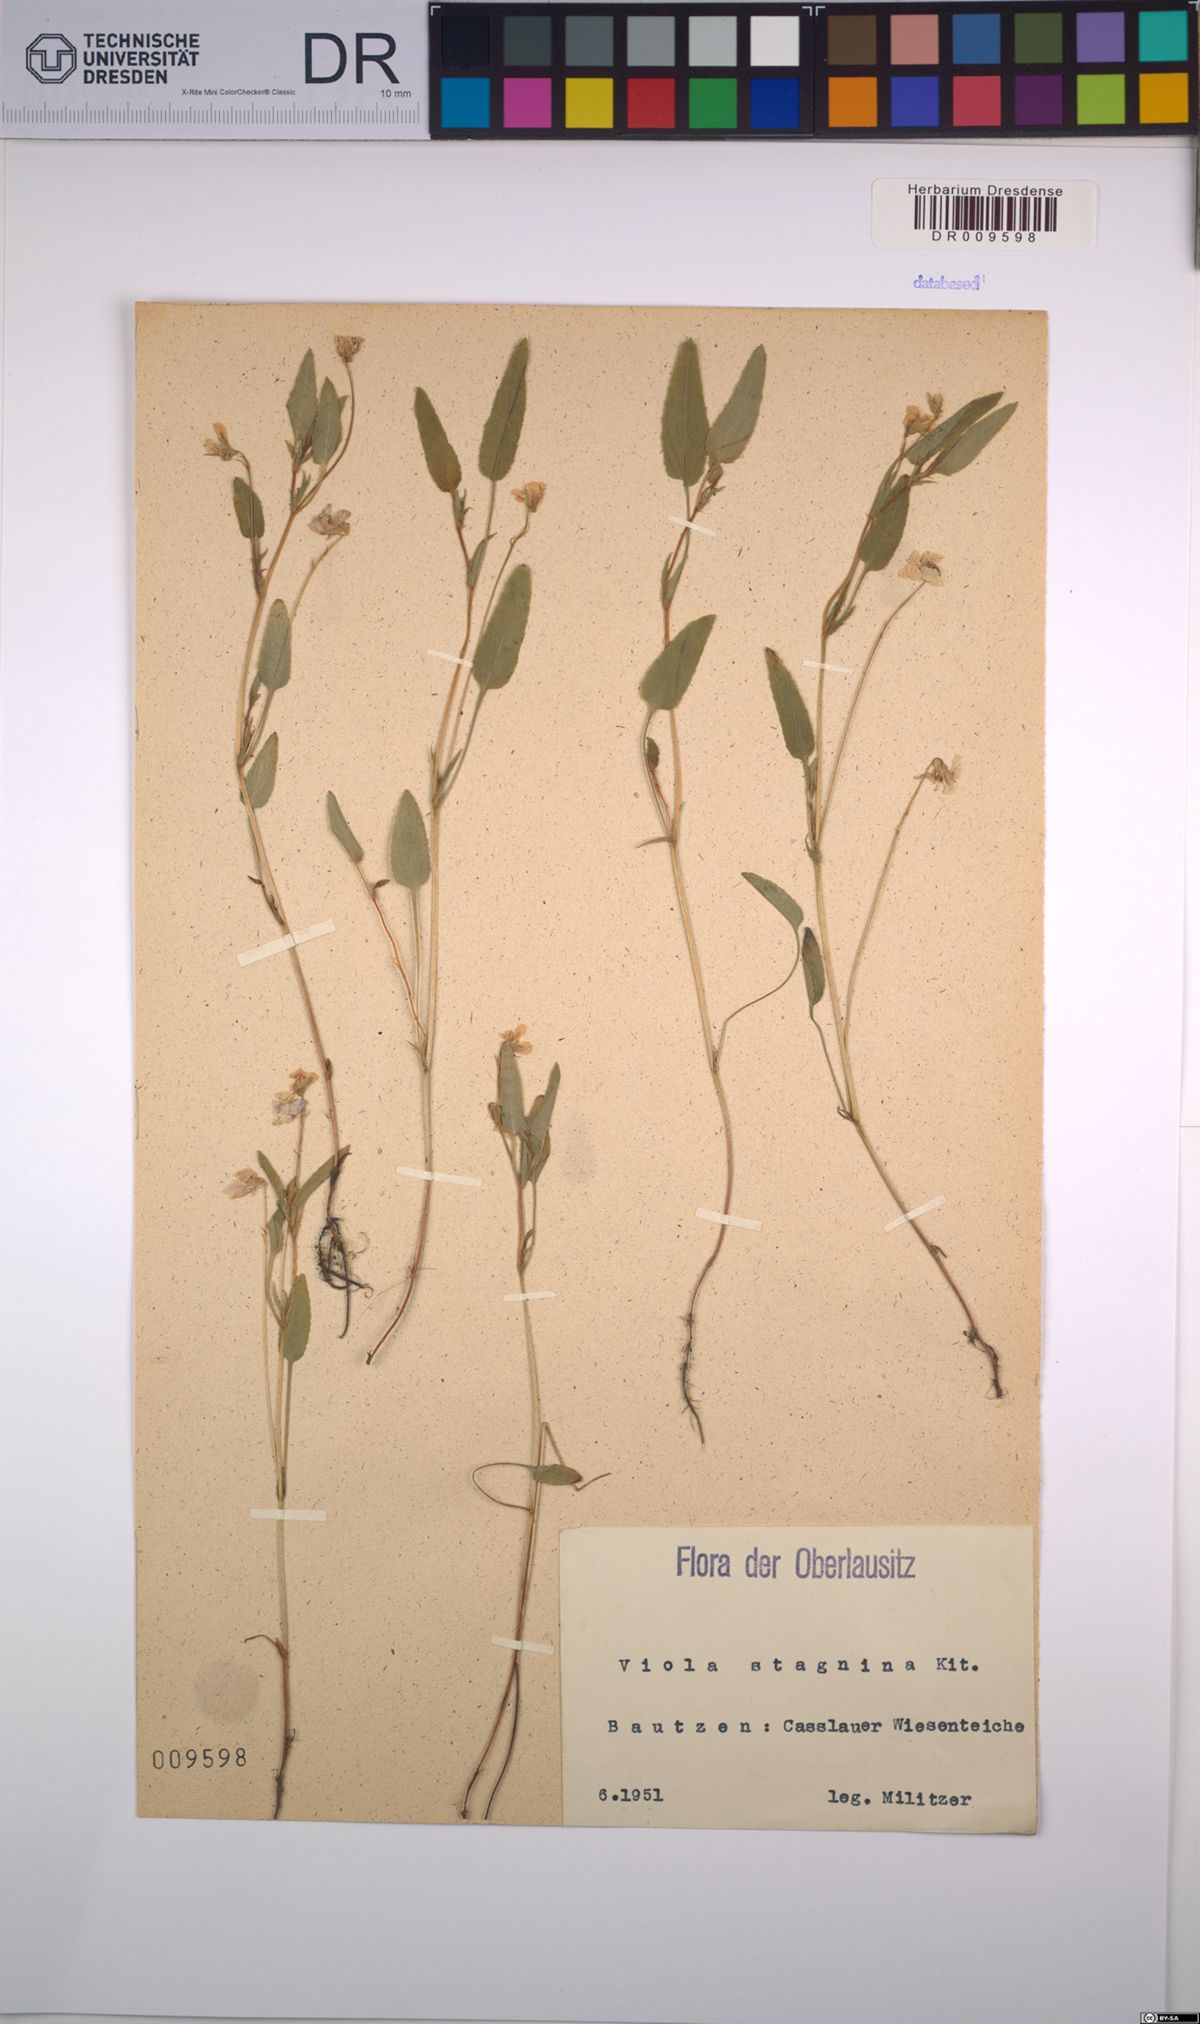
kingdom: Plantae
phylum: Tracheophyta
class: Magnoliopsida
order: Malpighiales
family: Violaceae
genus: Viola
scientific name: Viola stagnina
